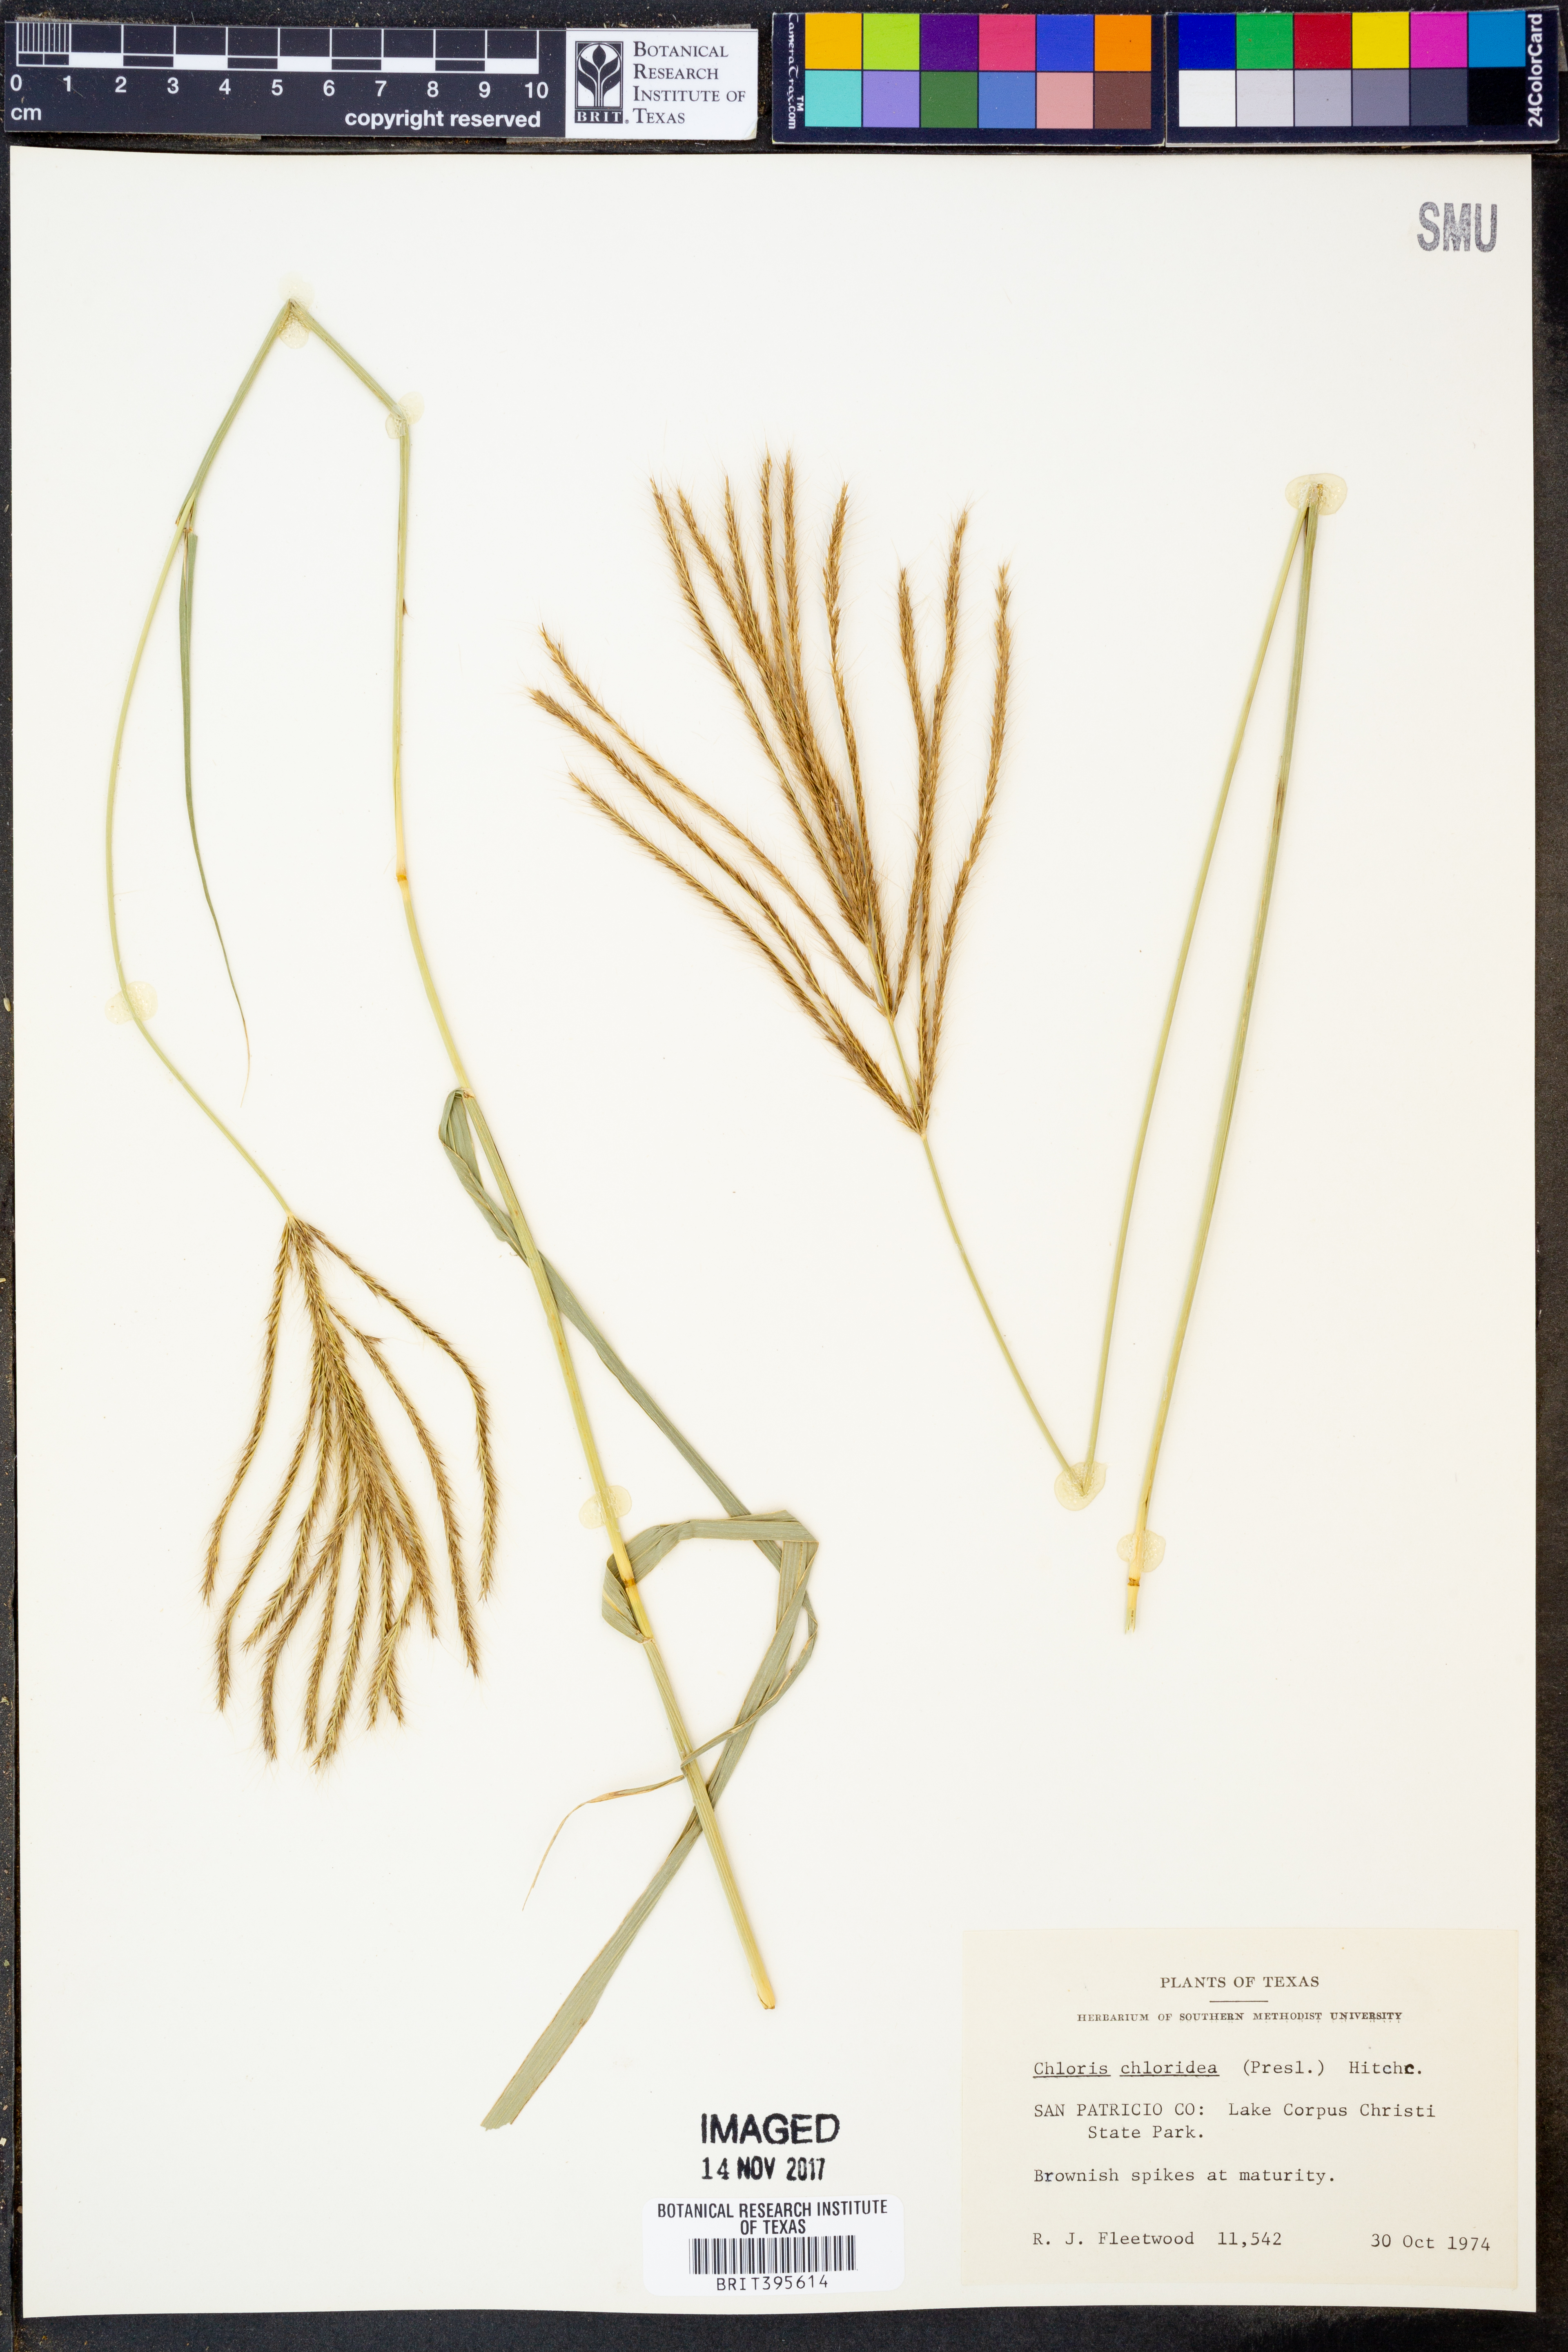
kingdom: Plantae
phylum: Tracheophyta
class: Liliopsida
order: Poales
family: Poaceae
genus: Tetrapogon
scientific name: Tetrapogon chlorideus
